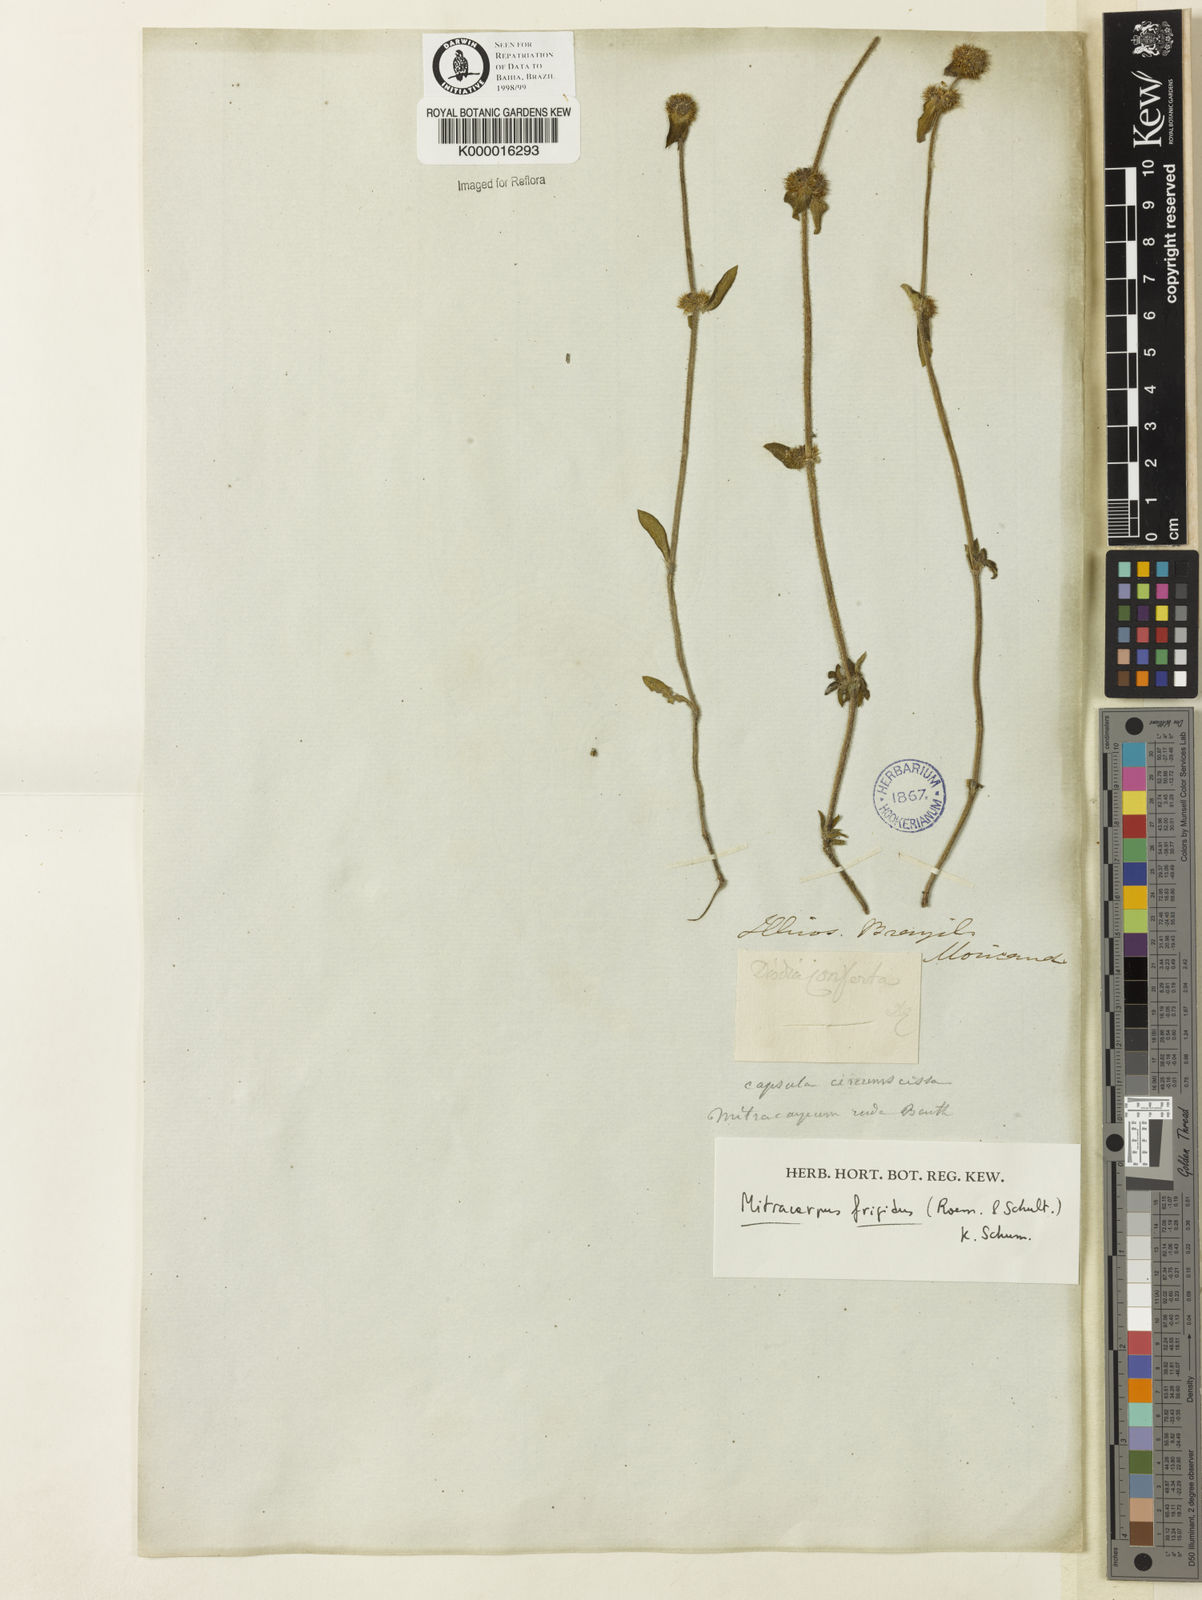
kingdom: Plantae
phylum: Tracheophyta
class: Magnoliopsida
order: Gentianales
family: Rubiaceae
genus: Mitracarpus
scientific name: Mitracarpus frigidus
